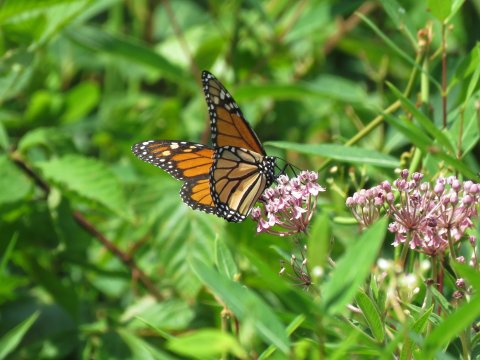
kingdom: Animalia
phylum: Arthropoda
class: Insecta
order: Lepidoptera
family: Nymphalidae
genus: Danaus
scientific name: Danaus plexippus
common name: Monarch
